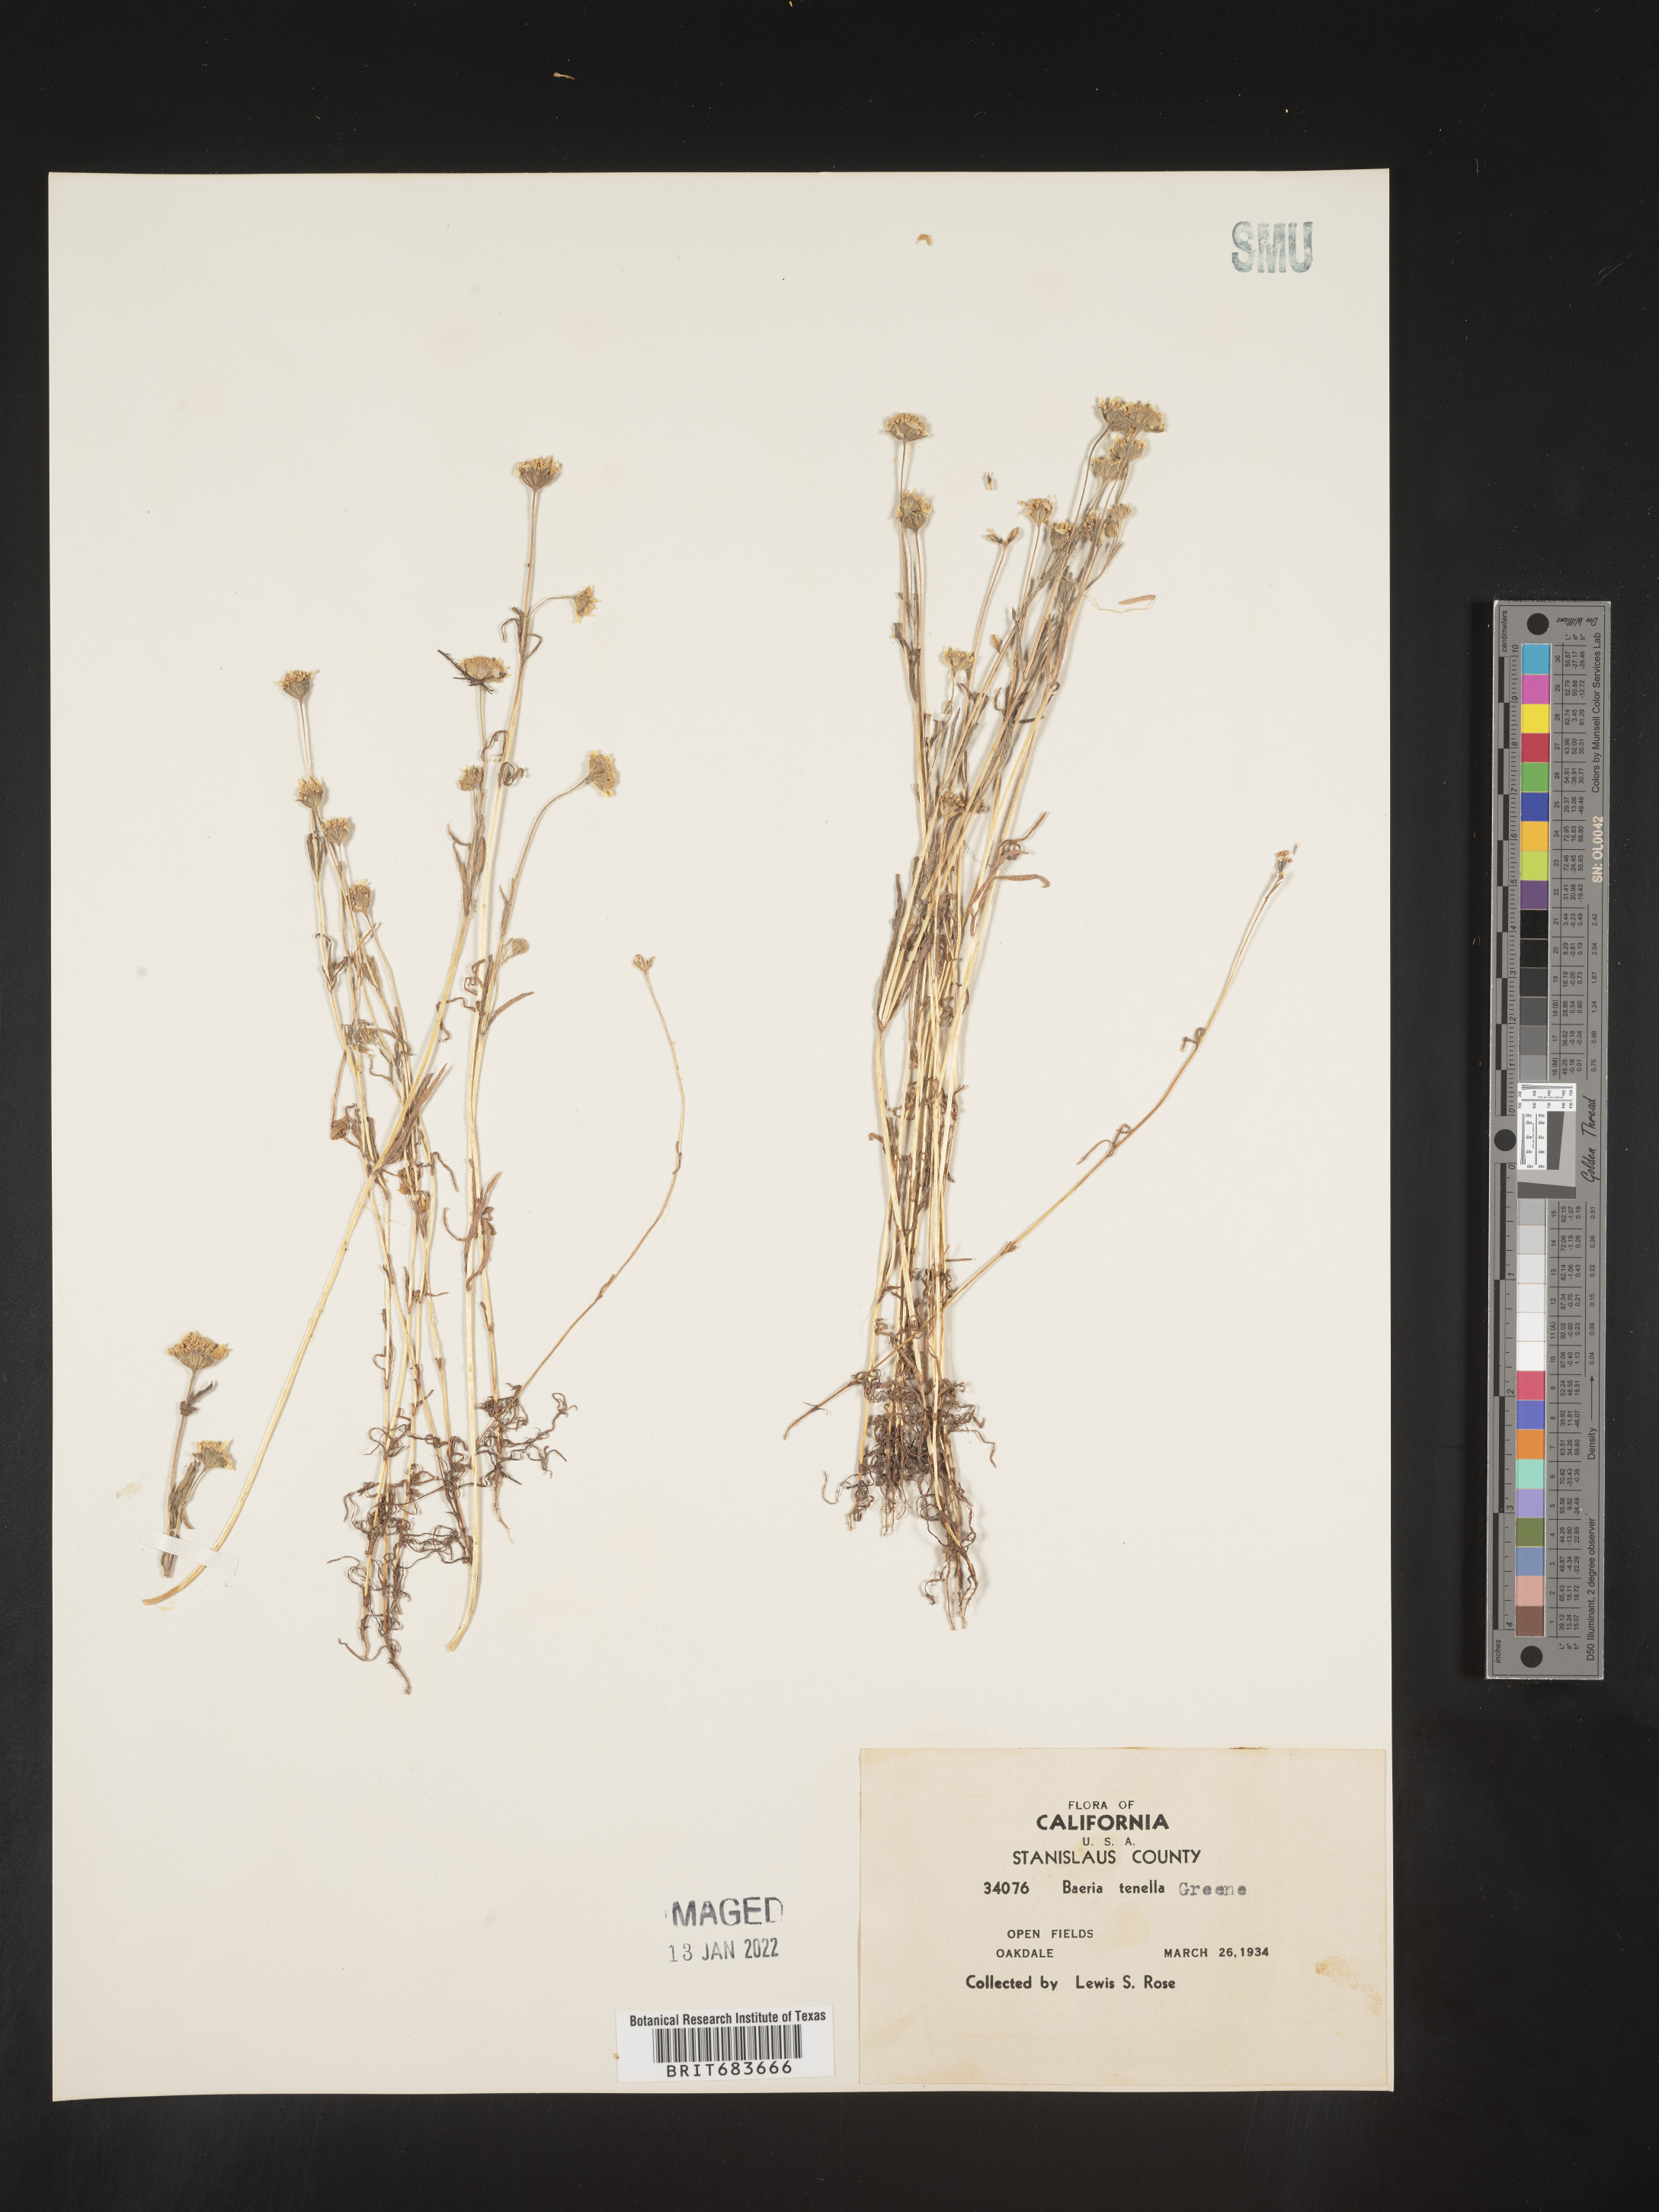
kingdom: Plantae
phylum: Tracheophyta
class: Magnoliopsida
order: Asterales
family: Asteraceae
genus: Lasthenia
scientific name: Lasthenia
